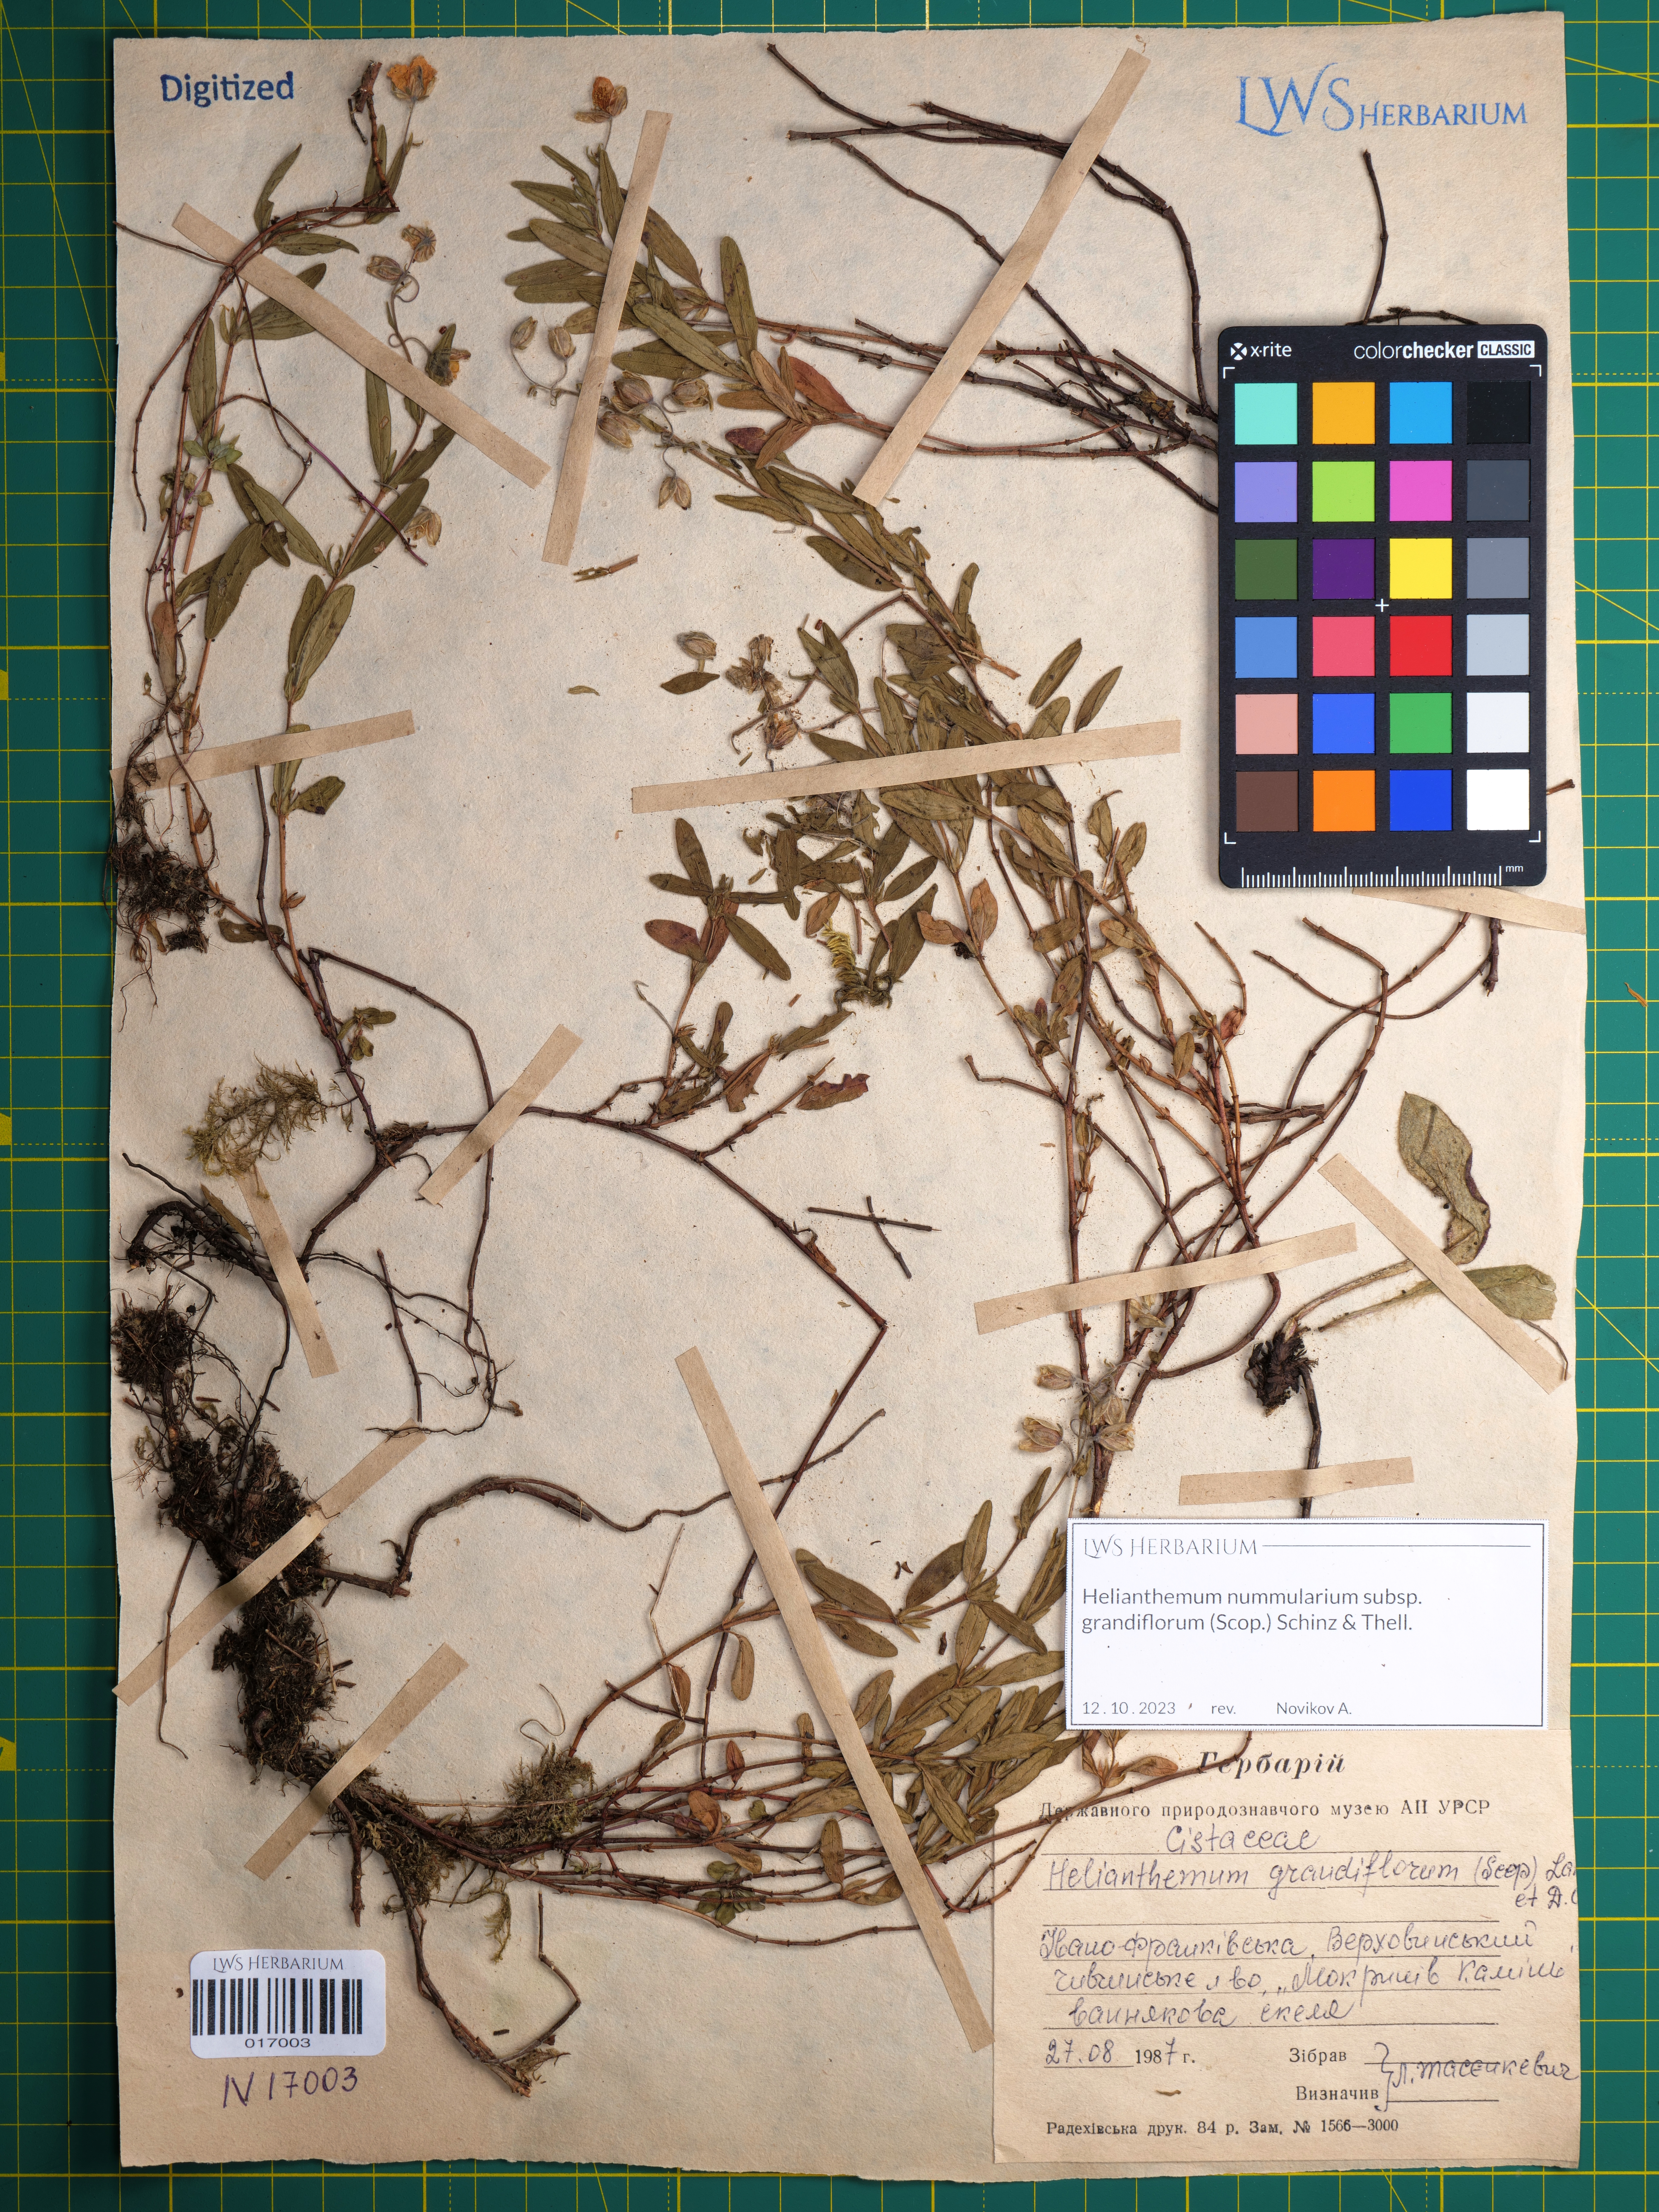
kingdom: Plantae
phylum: Tracheophyta
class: Magnoliopsida
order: Malvales
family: Cistaceae
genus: Helianthemum
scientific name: Helianthemum nummularium
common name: Common rock-rose
